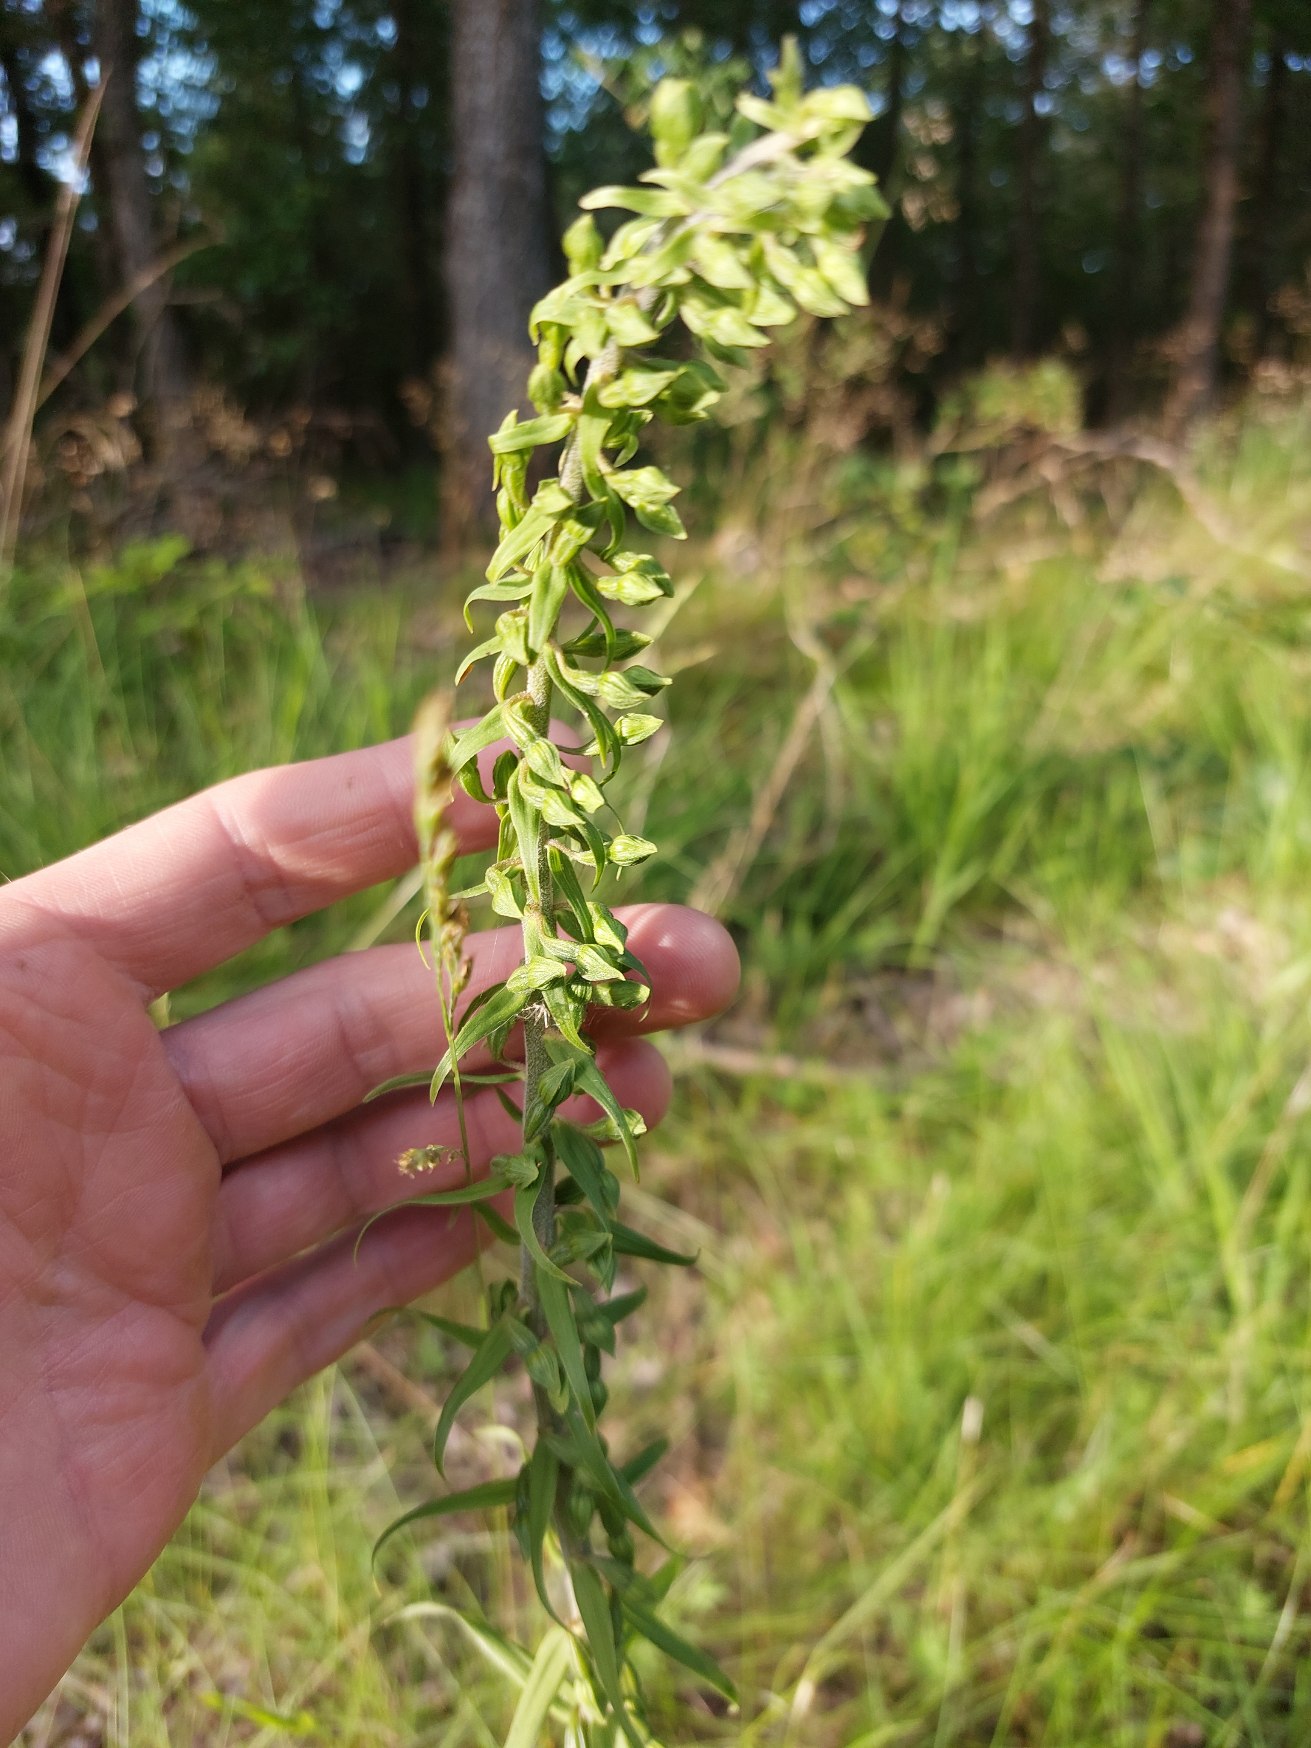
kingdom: Plantae
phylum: Tracheophyta
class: Liliopsida
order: Asparagales
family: Orchidaceae
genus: Epipactis
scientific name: Epipactis helleborine
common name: Skov-hullæbe
